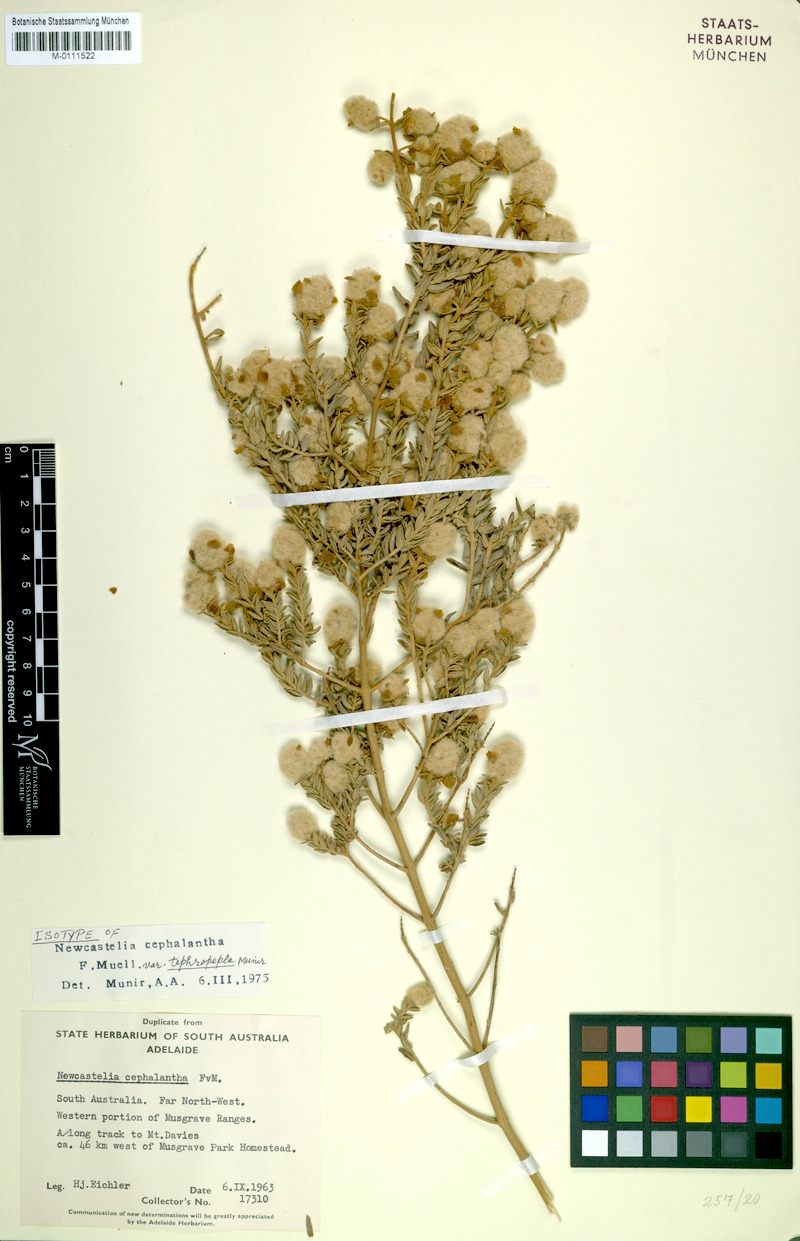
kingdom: Plantae
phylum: Tracheophyta
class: Magnoliopsida
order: Lamiales
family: Lamiaceae
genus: Newcastelia
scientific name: Newcastelia cephalantha
